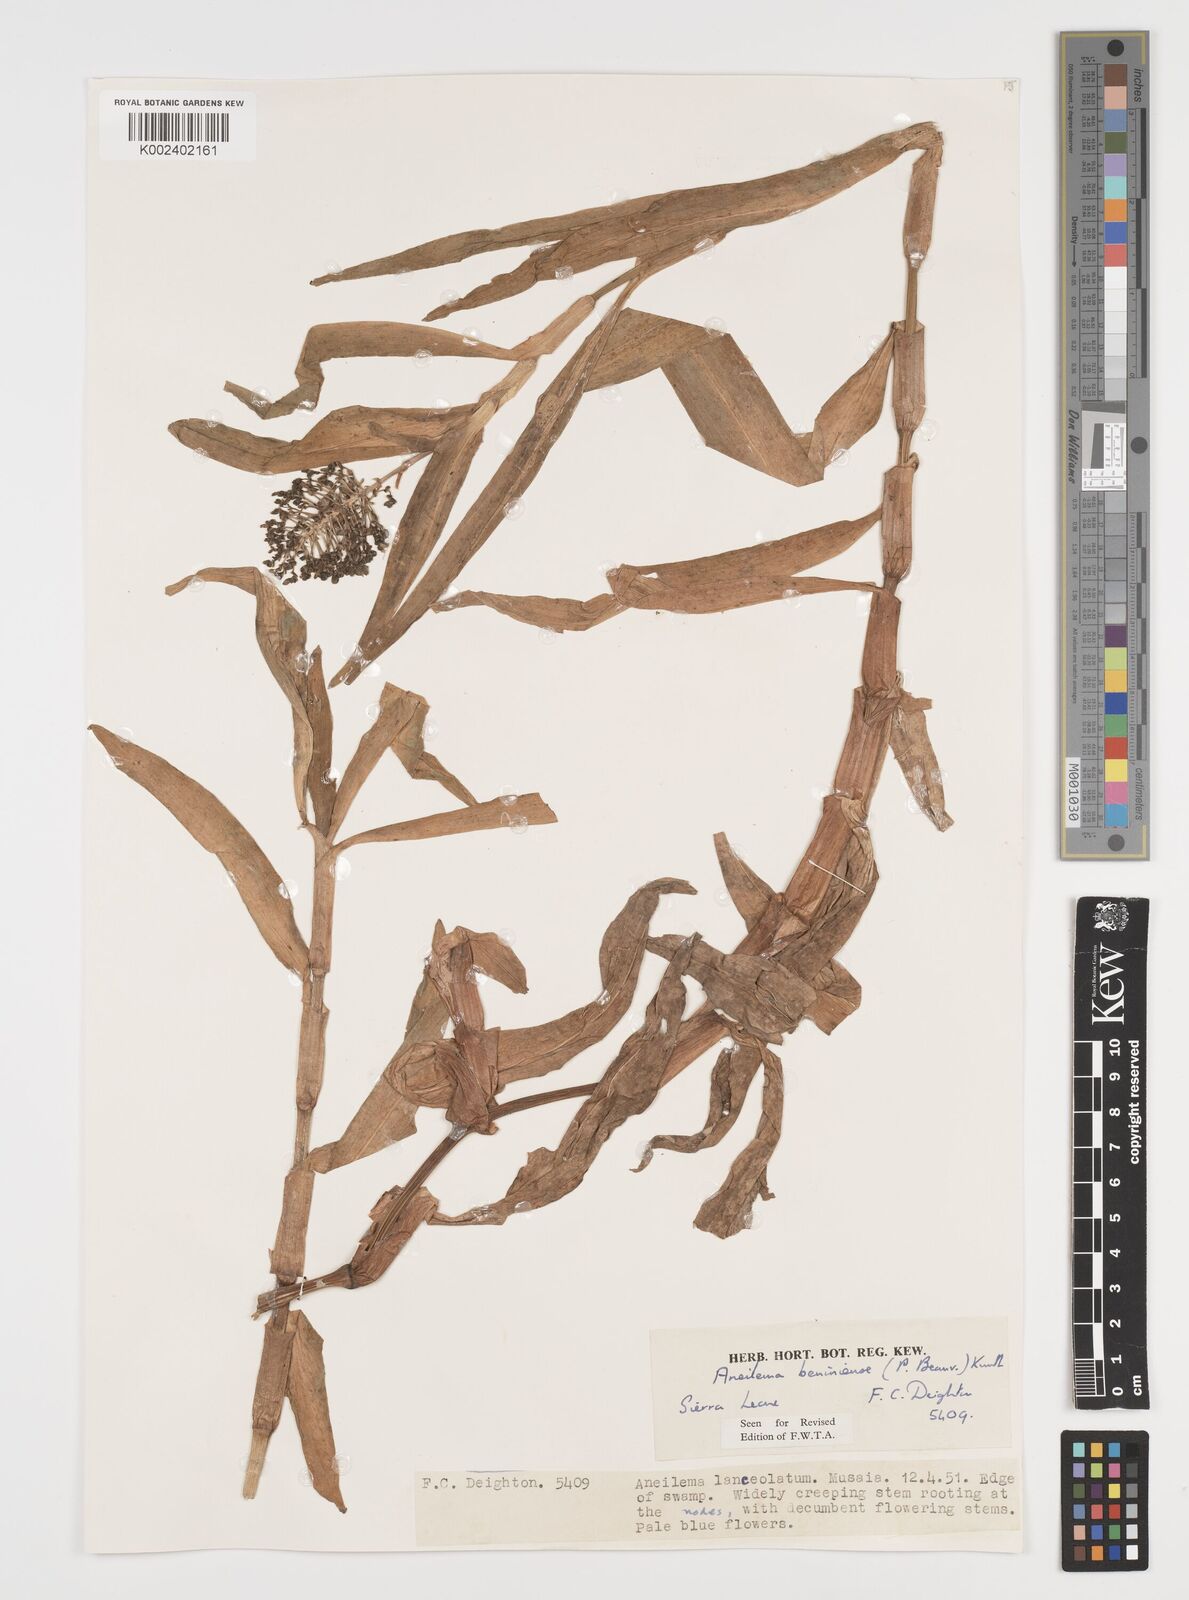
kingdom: Plantae
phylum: Tracheophyta
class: Liliopsida
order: Commelinales
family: Commelinaceae
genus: Aneilema
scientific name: Aneilema beniniense
